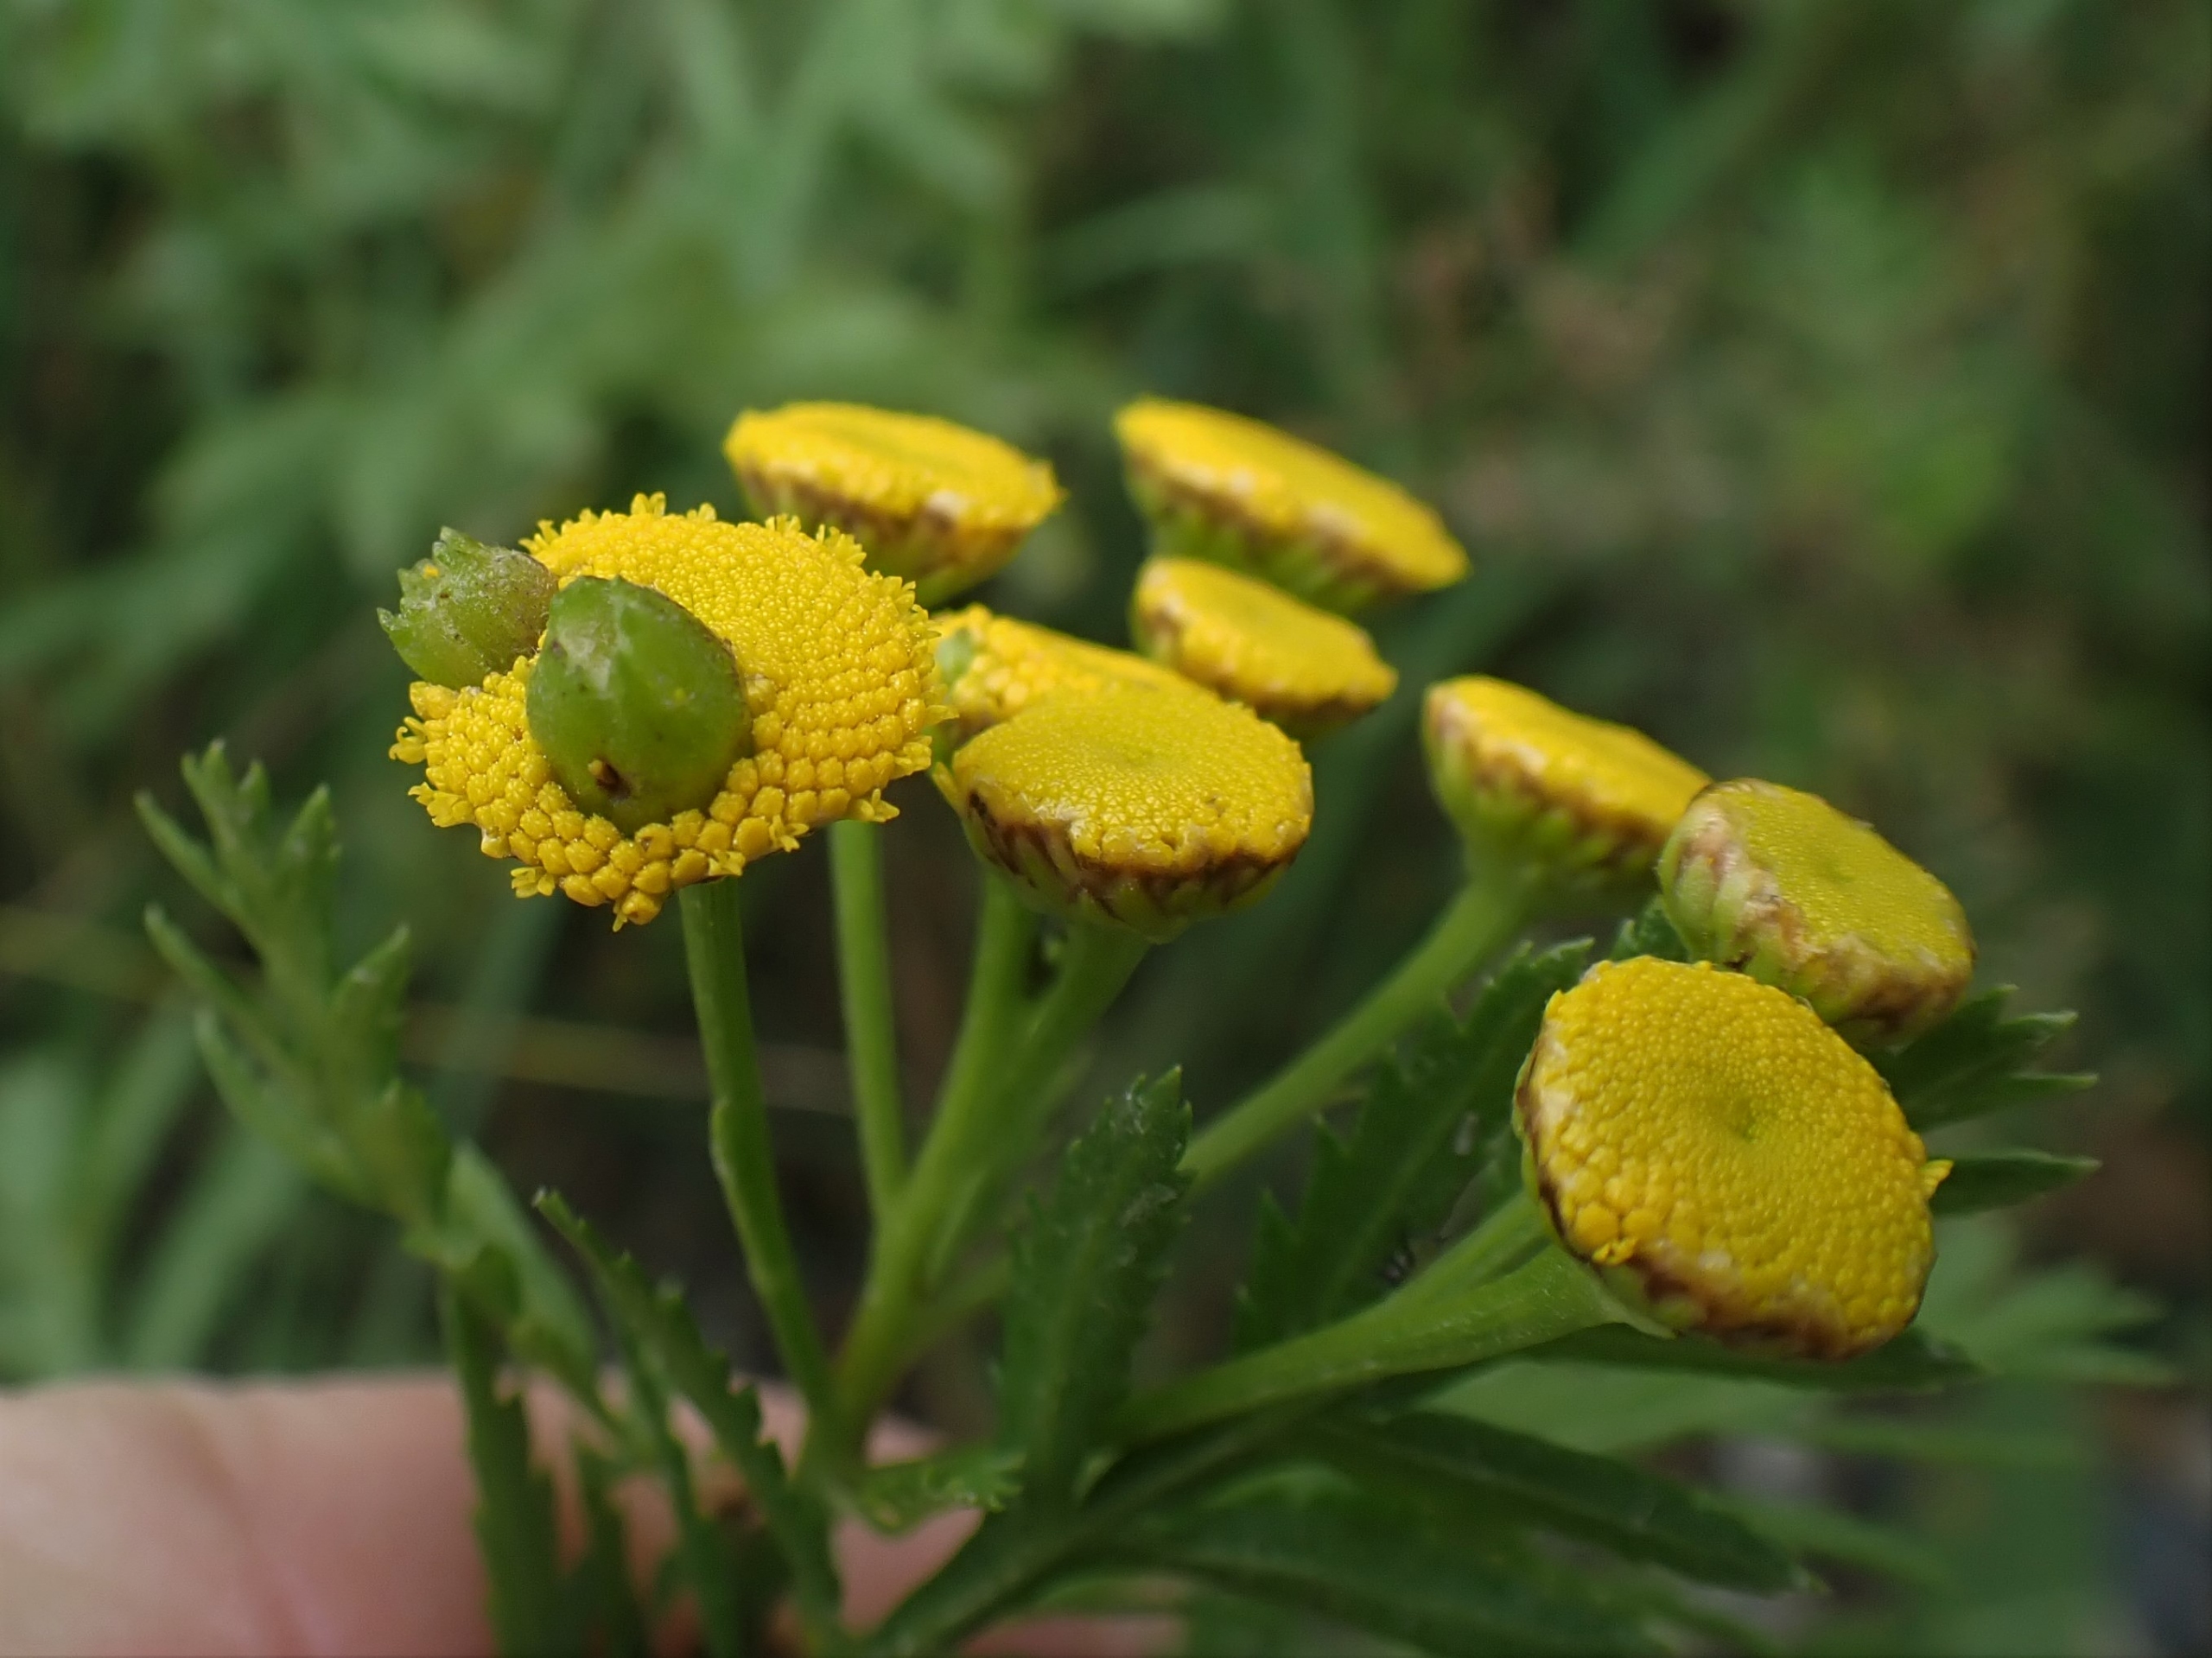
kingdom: Animalia
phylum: Arthropoda
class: Insecta
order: Diptera
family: Cecidomyiidae
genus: Rhopalomyia
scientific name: Rhopalomyia tanaceticolus
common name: Rejnfangalmyg
